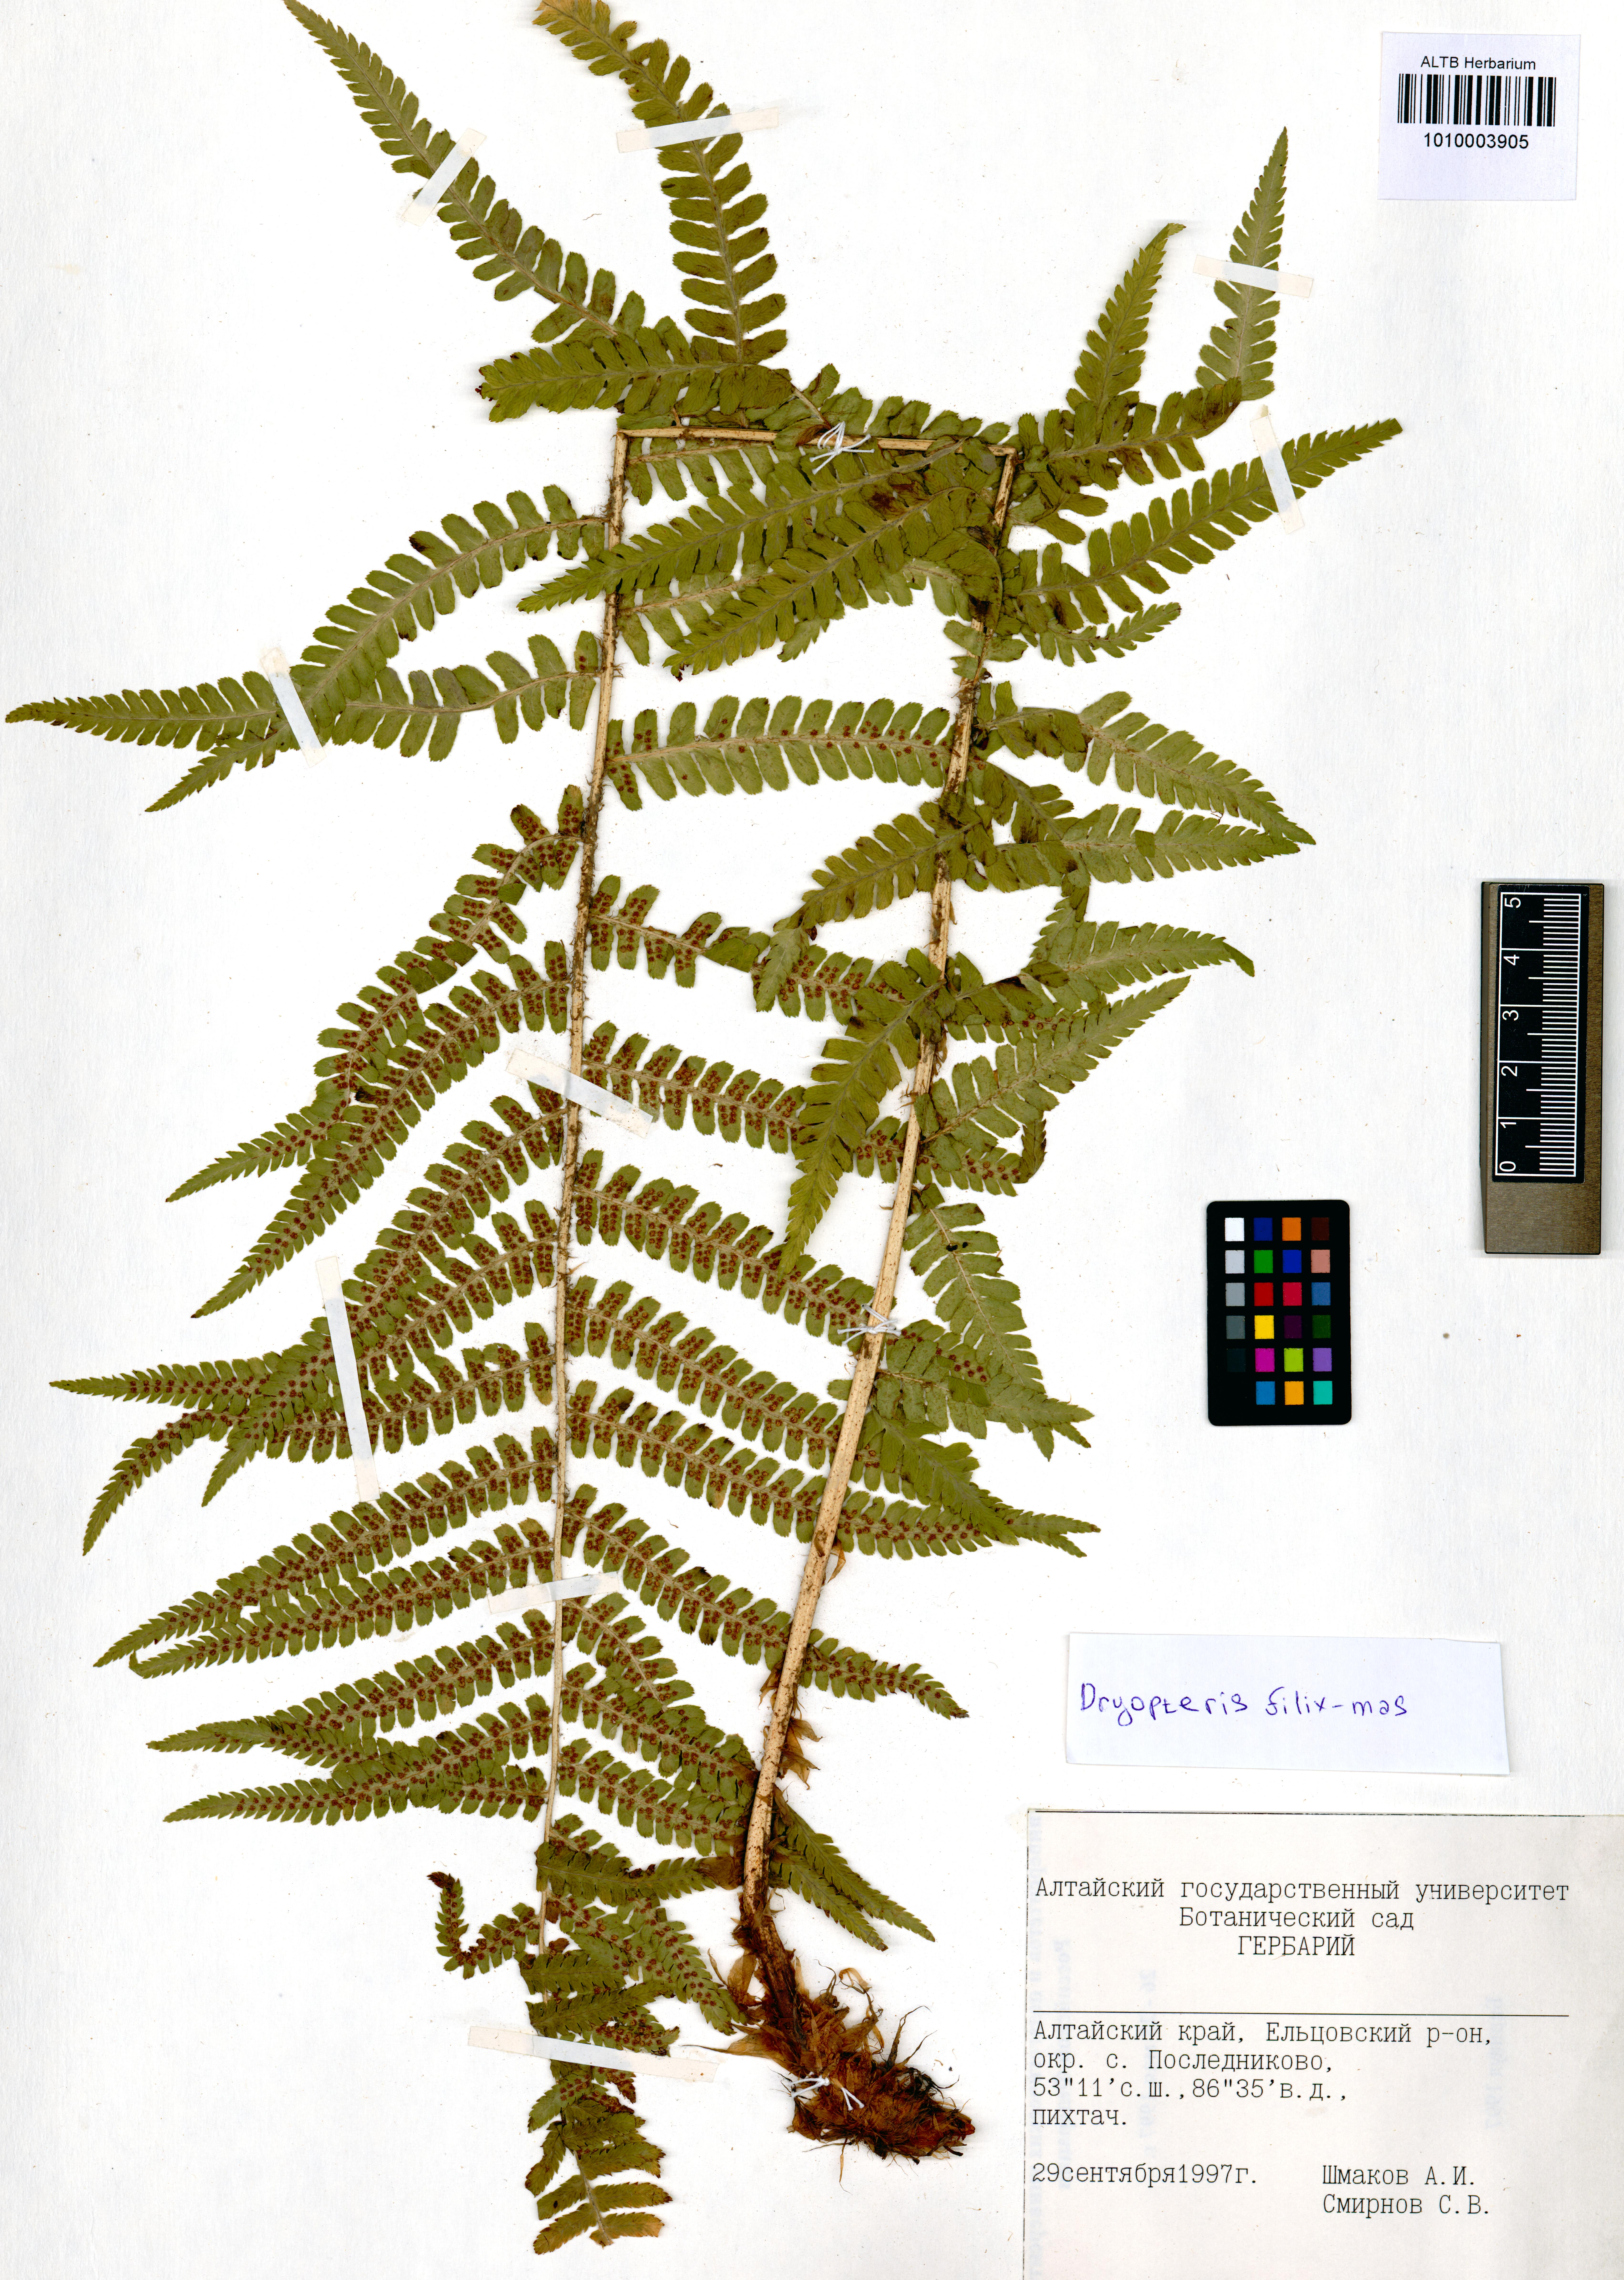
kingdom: Plantae
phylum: Tracheophyta
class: Polypodiopsida
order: Polypodiales
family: Dryopteridaceae
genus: Dryopteris
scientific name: Dryopteris filix-mas
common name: Male fern
